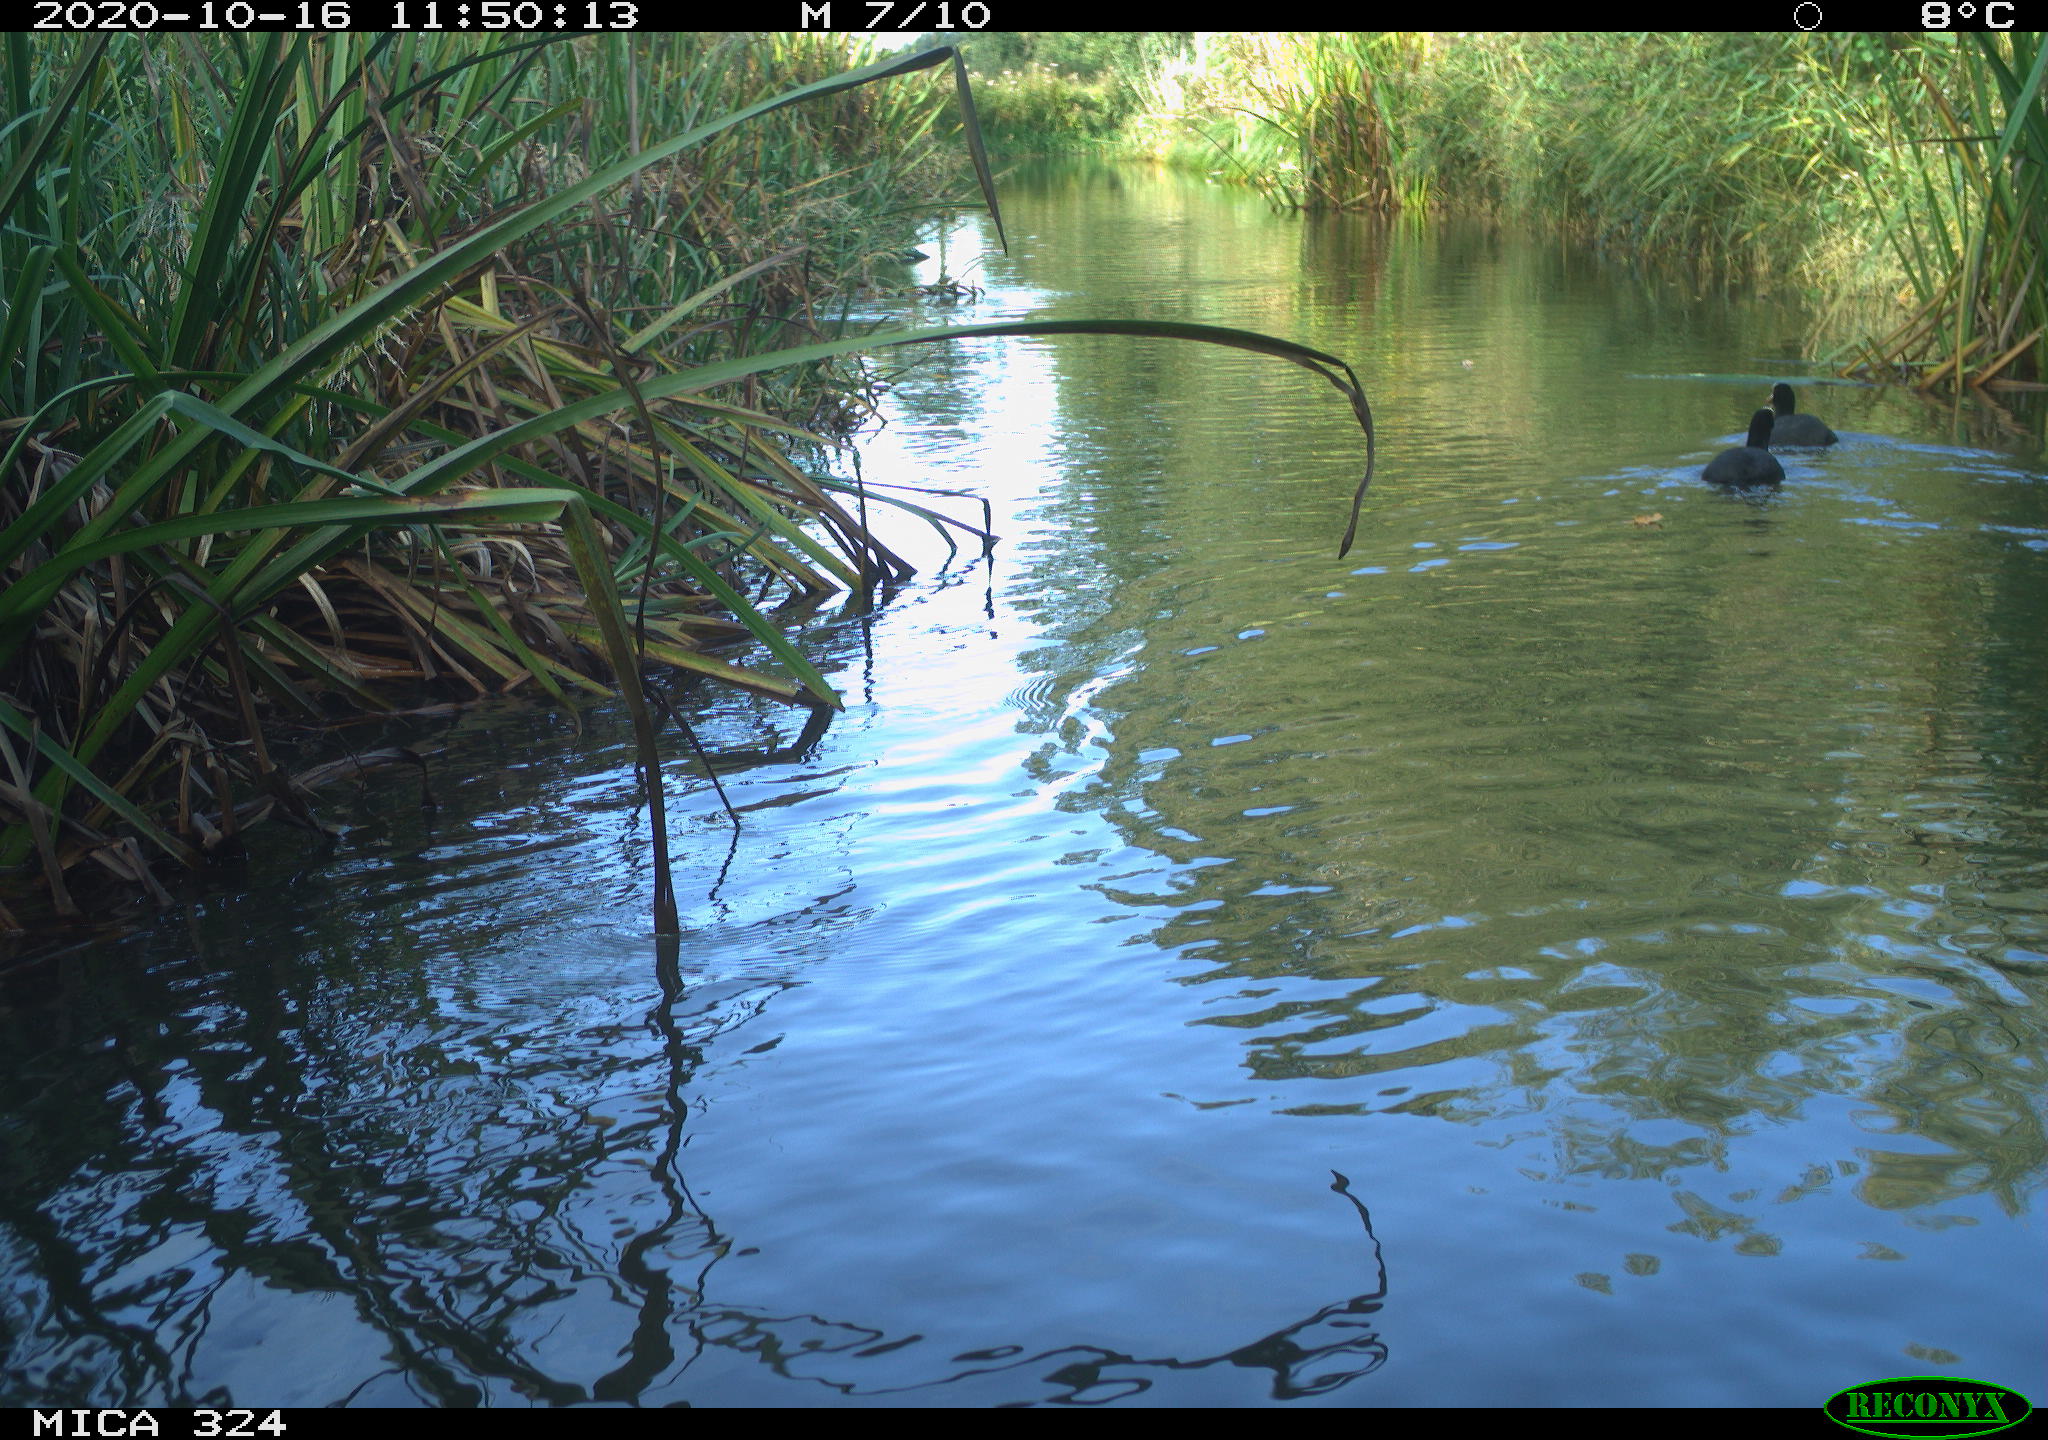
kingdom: Animalia
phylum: Chordata
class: Aves
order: Gruiformes
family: Rallidae
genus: Fulica
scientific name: Fulica atra
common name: Eurasian coot
